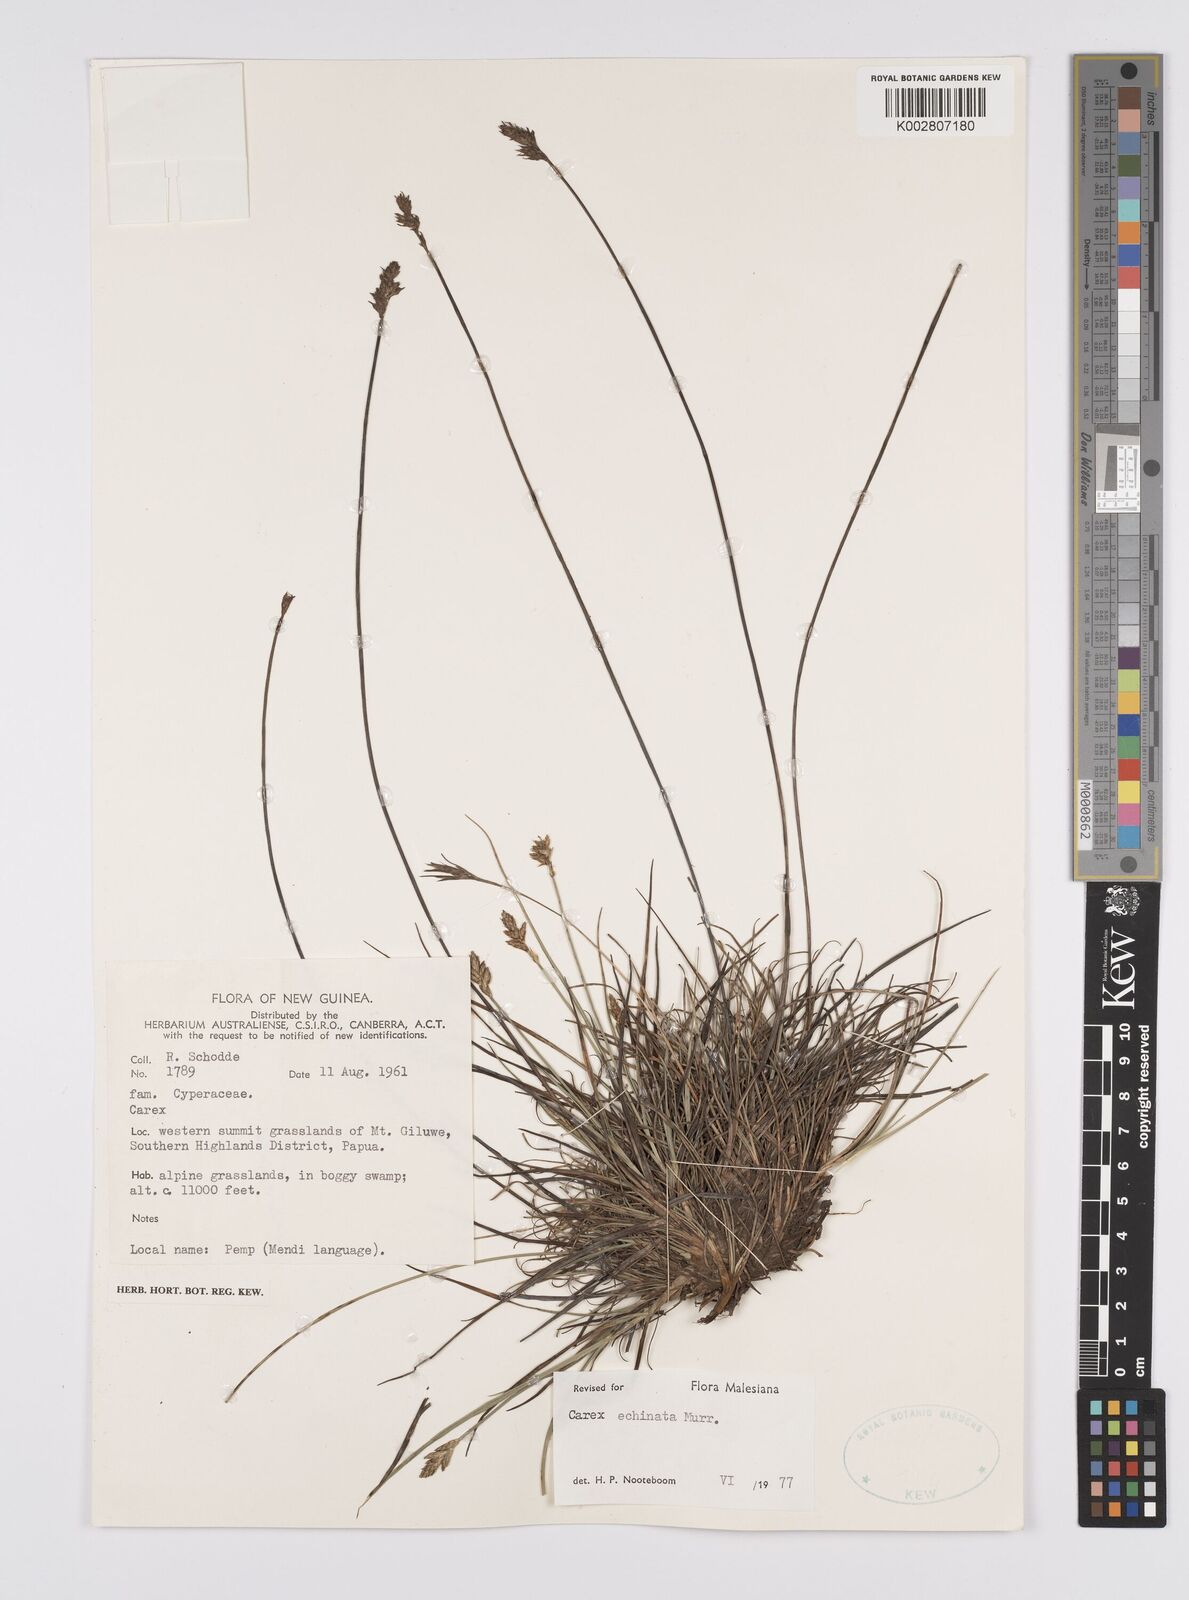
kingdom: Plantae
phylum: Tracheophyta
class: Liliopsida
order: Poales
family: Cyperaceae
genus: Carex
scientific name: Carex echinata
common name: Star sedge
